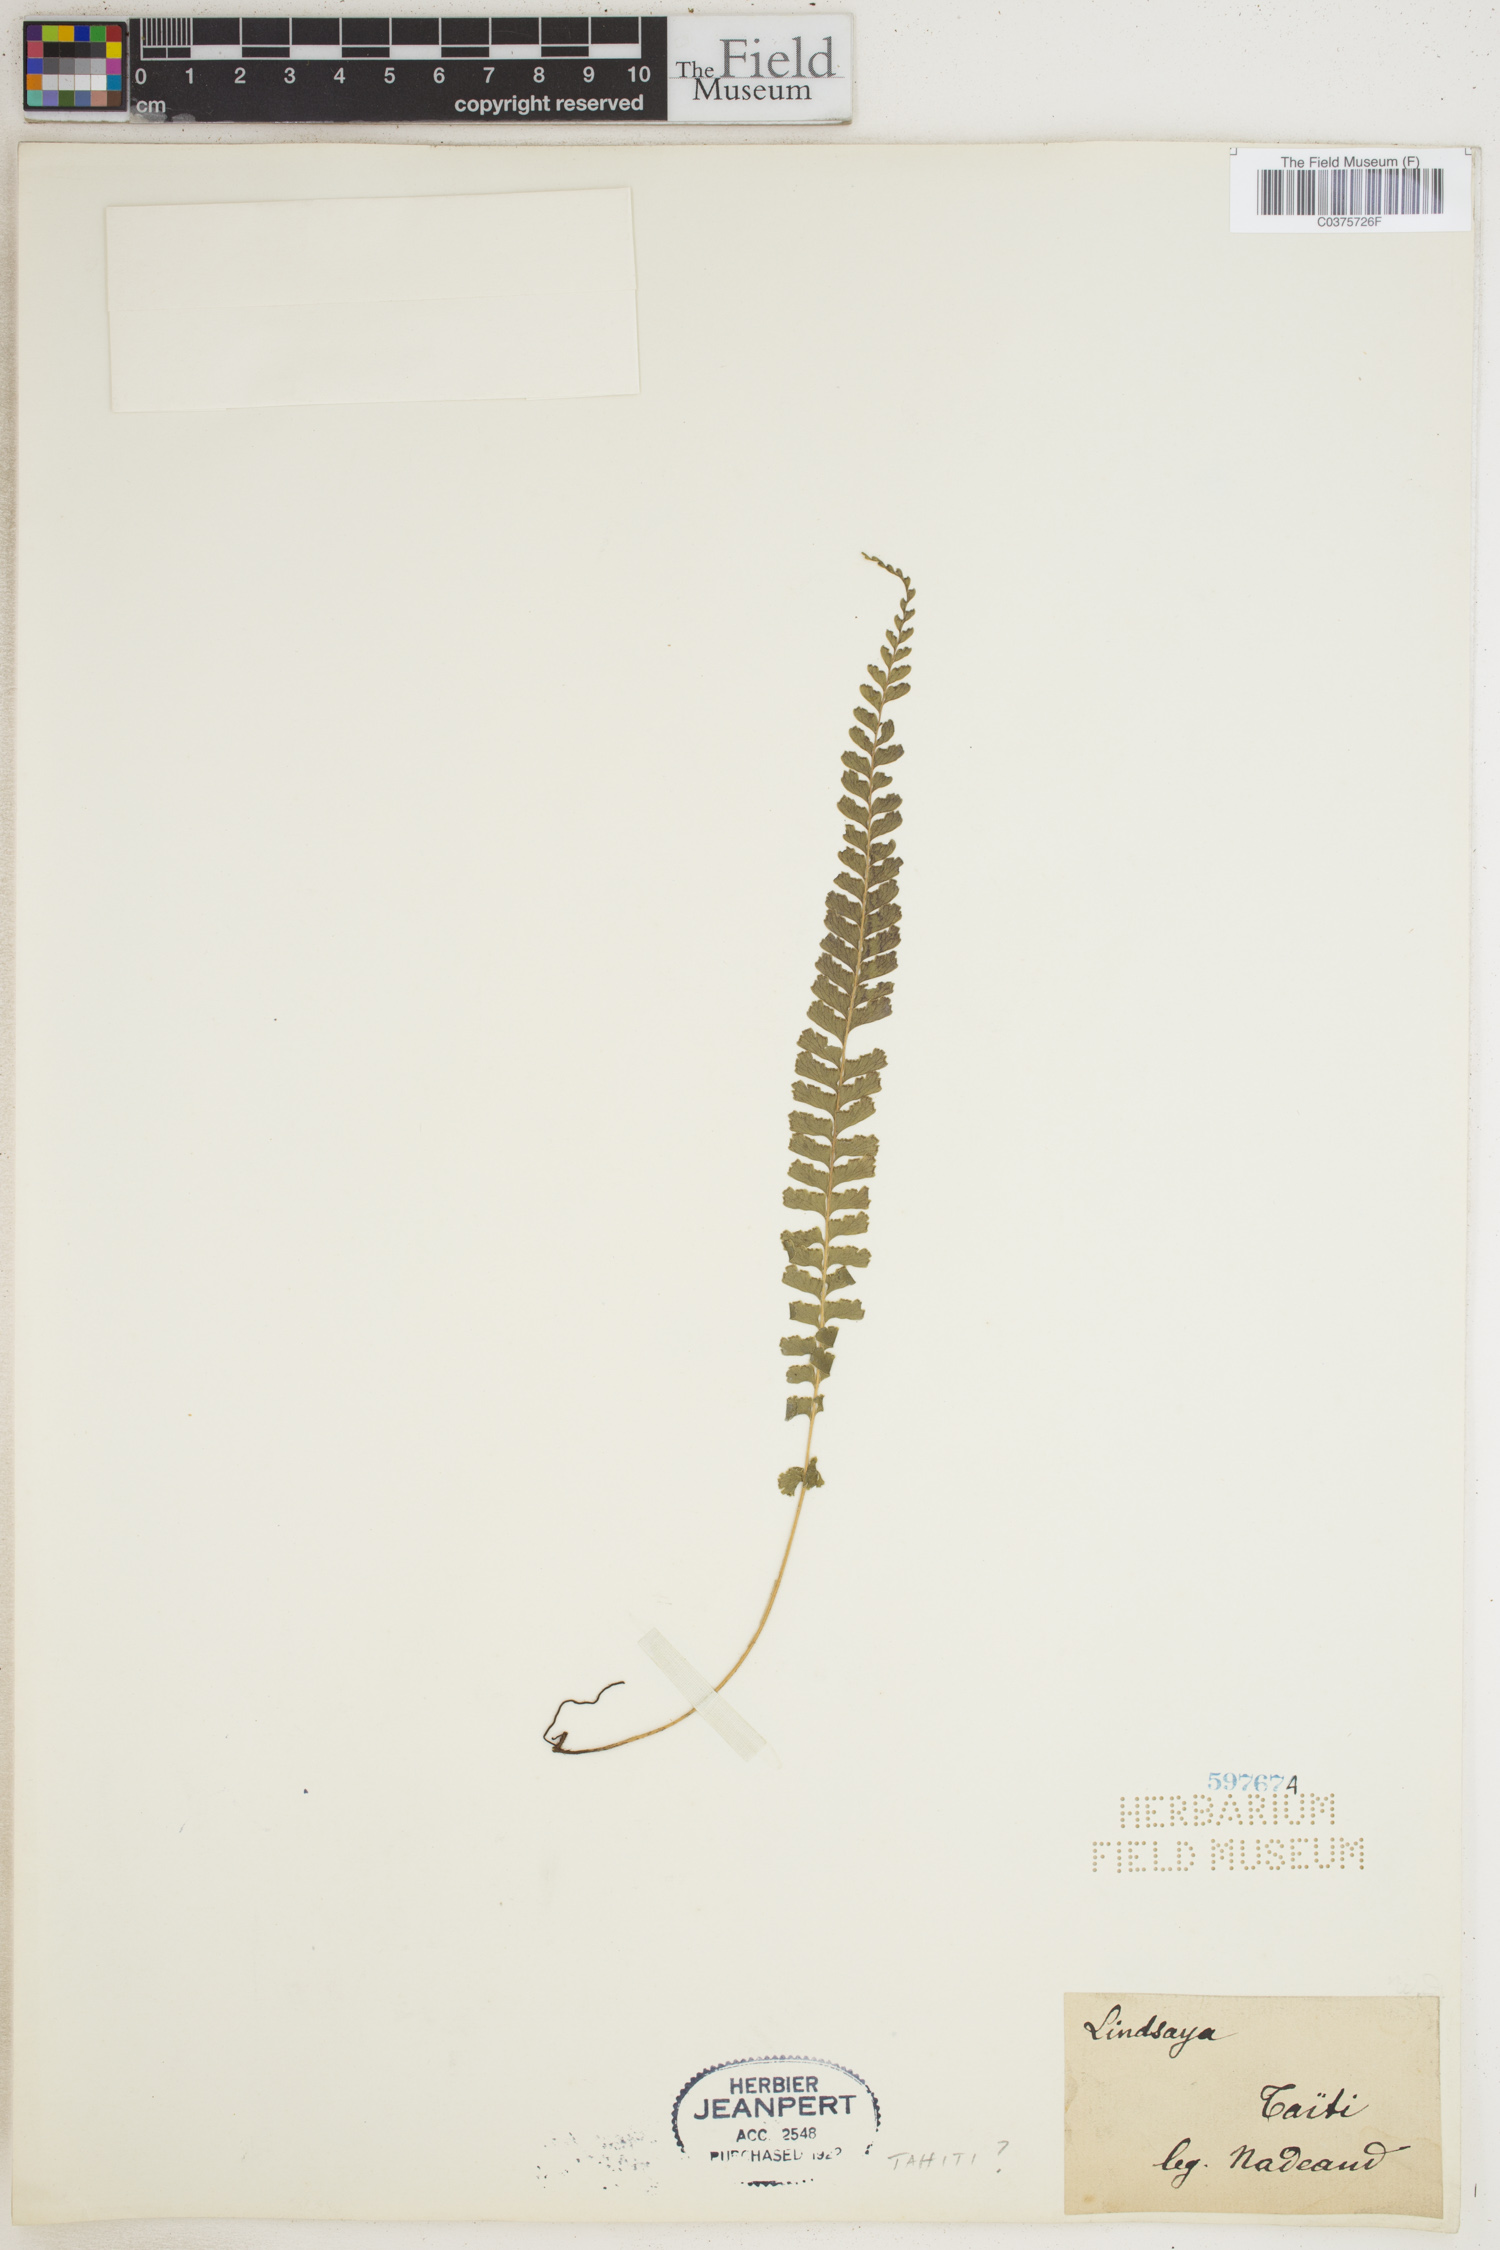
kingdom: Plantae
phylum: Tracheophyta
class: Polypodiopsida
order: Polypodiales
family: Lindsaeaceae
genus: Lindsaea
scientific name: Lindsaea
